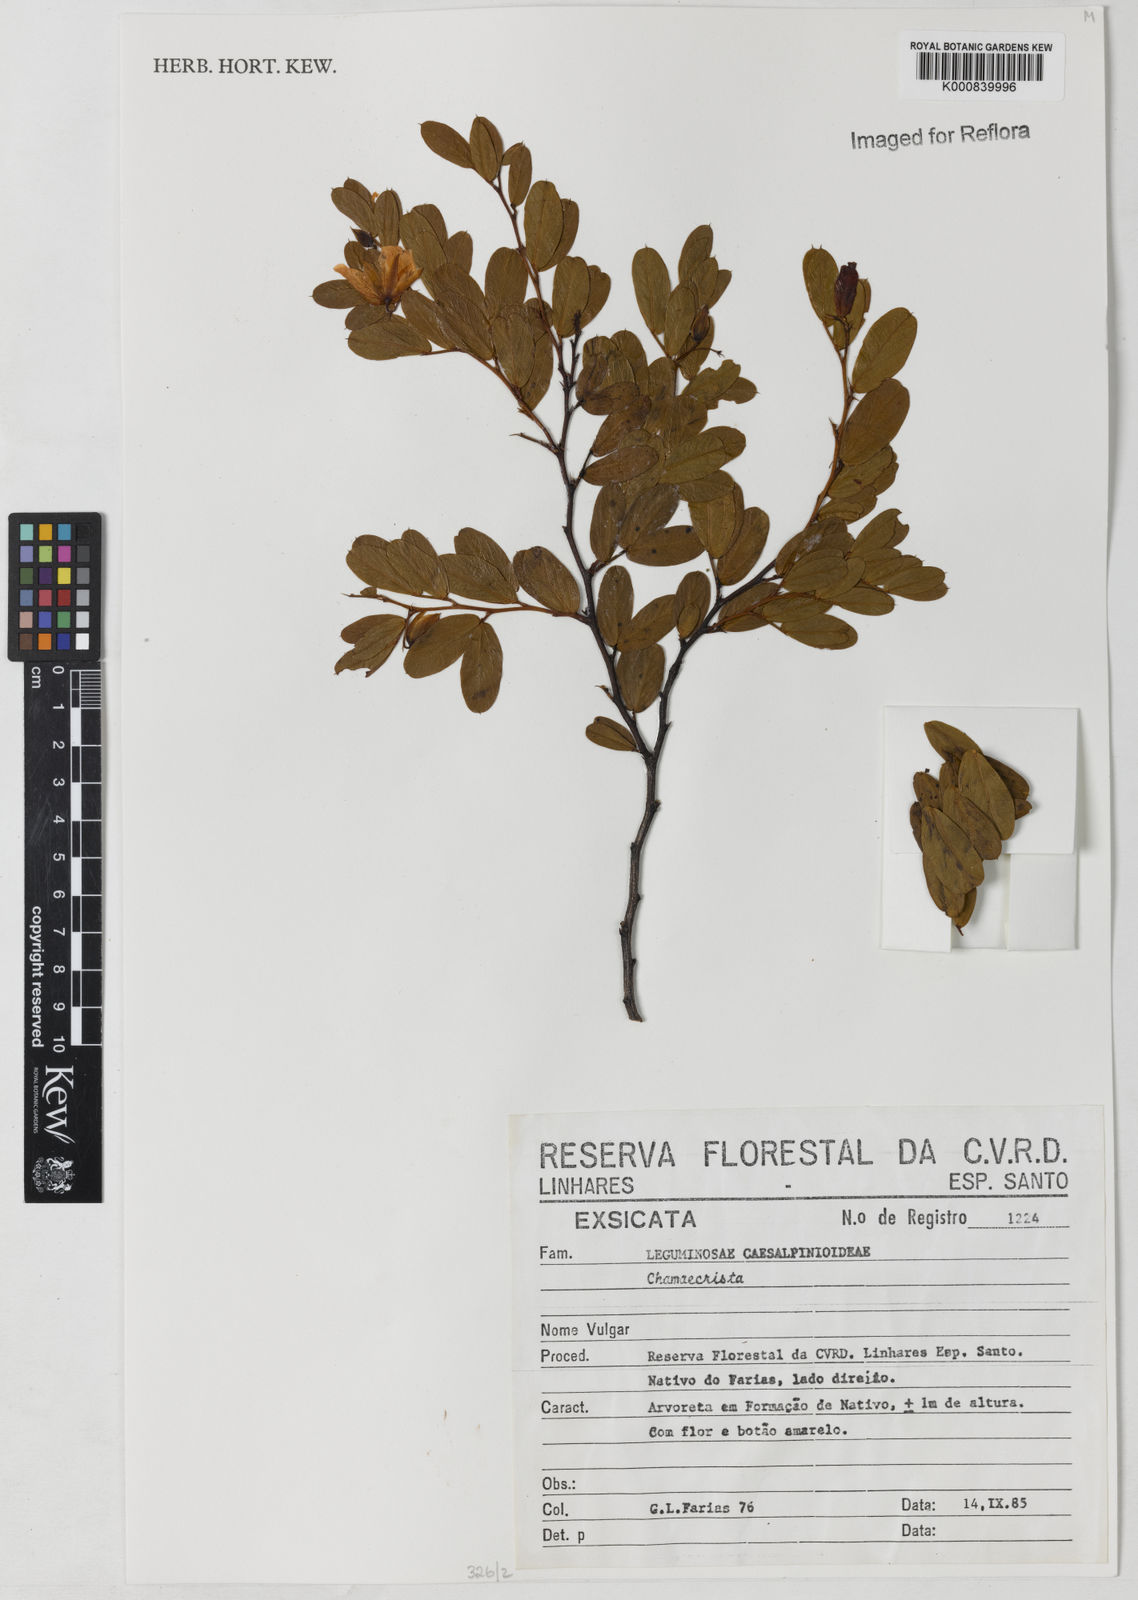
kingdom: Plantae
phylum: Tracheophyta
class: Magnoliopsida
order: Fabales
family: Fabaceae
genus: Chamaecrista
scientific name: Chamaecrista mucronata
